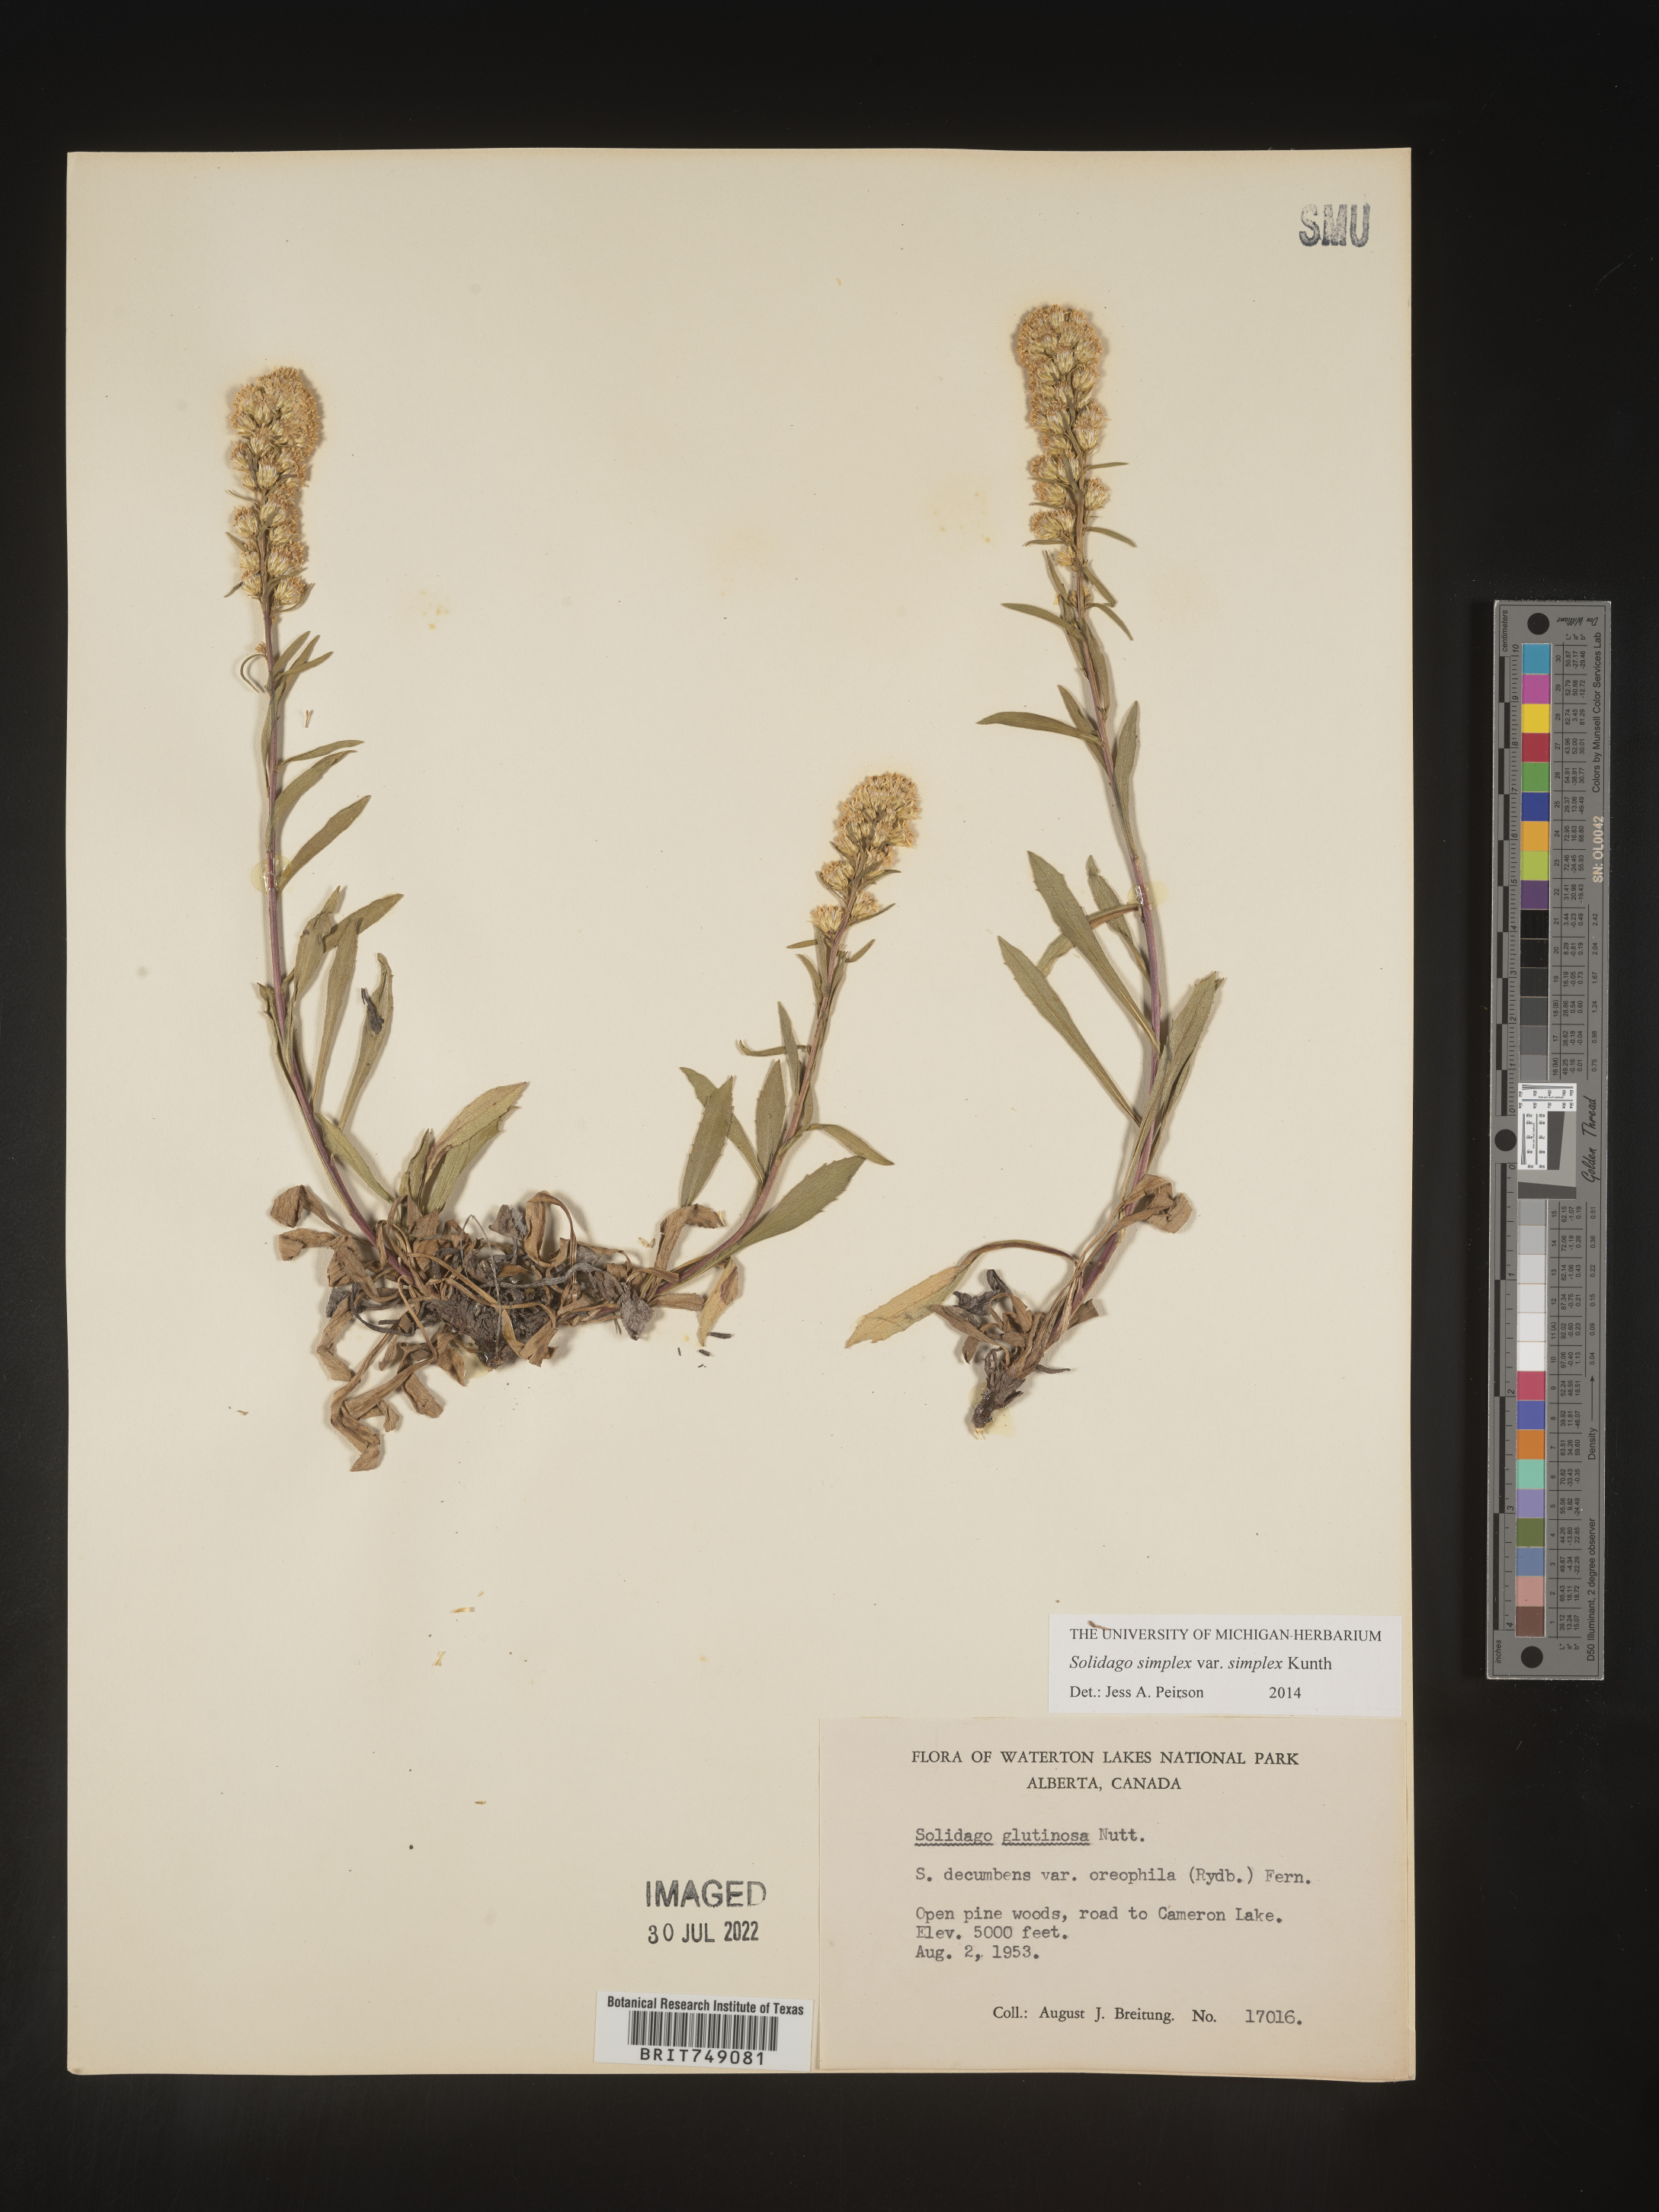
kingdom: Plantae
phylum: Tracheophyta
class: Magnoliopsida
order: Asterales
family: Asteraceae
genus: Solidago
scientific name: Solidago simplex
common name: Sticky goldenrod
